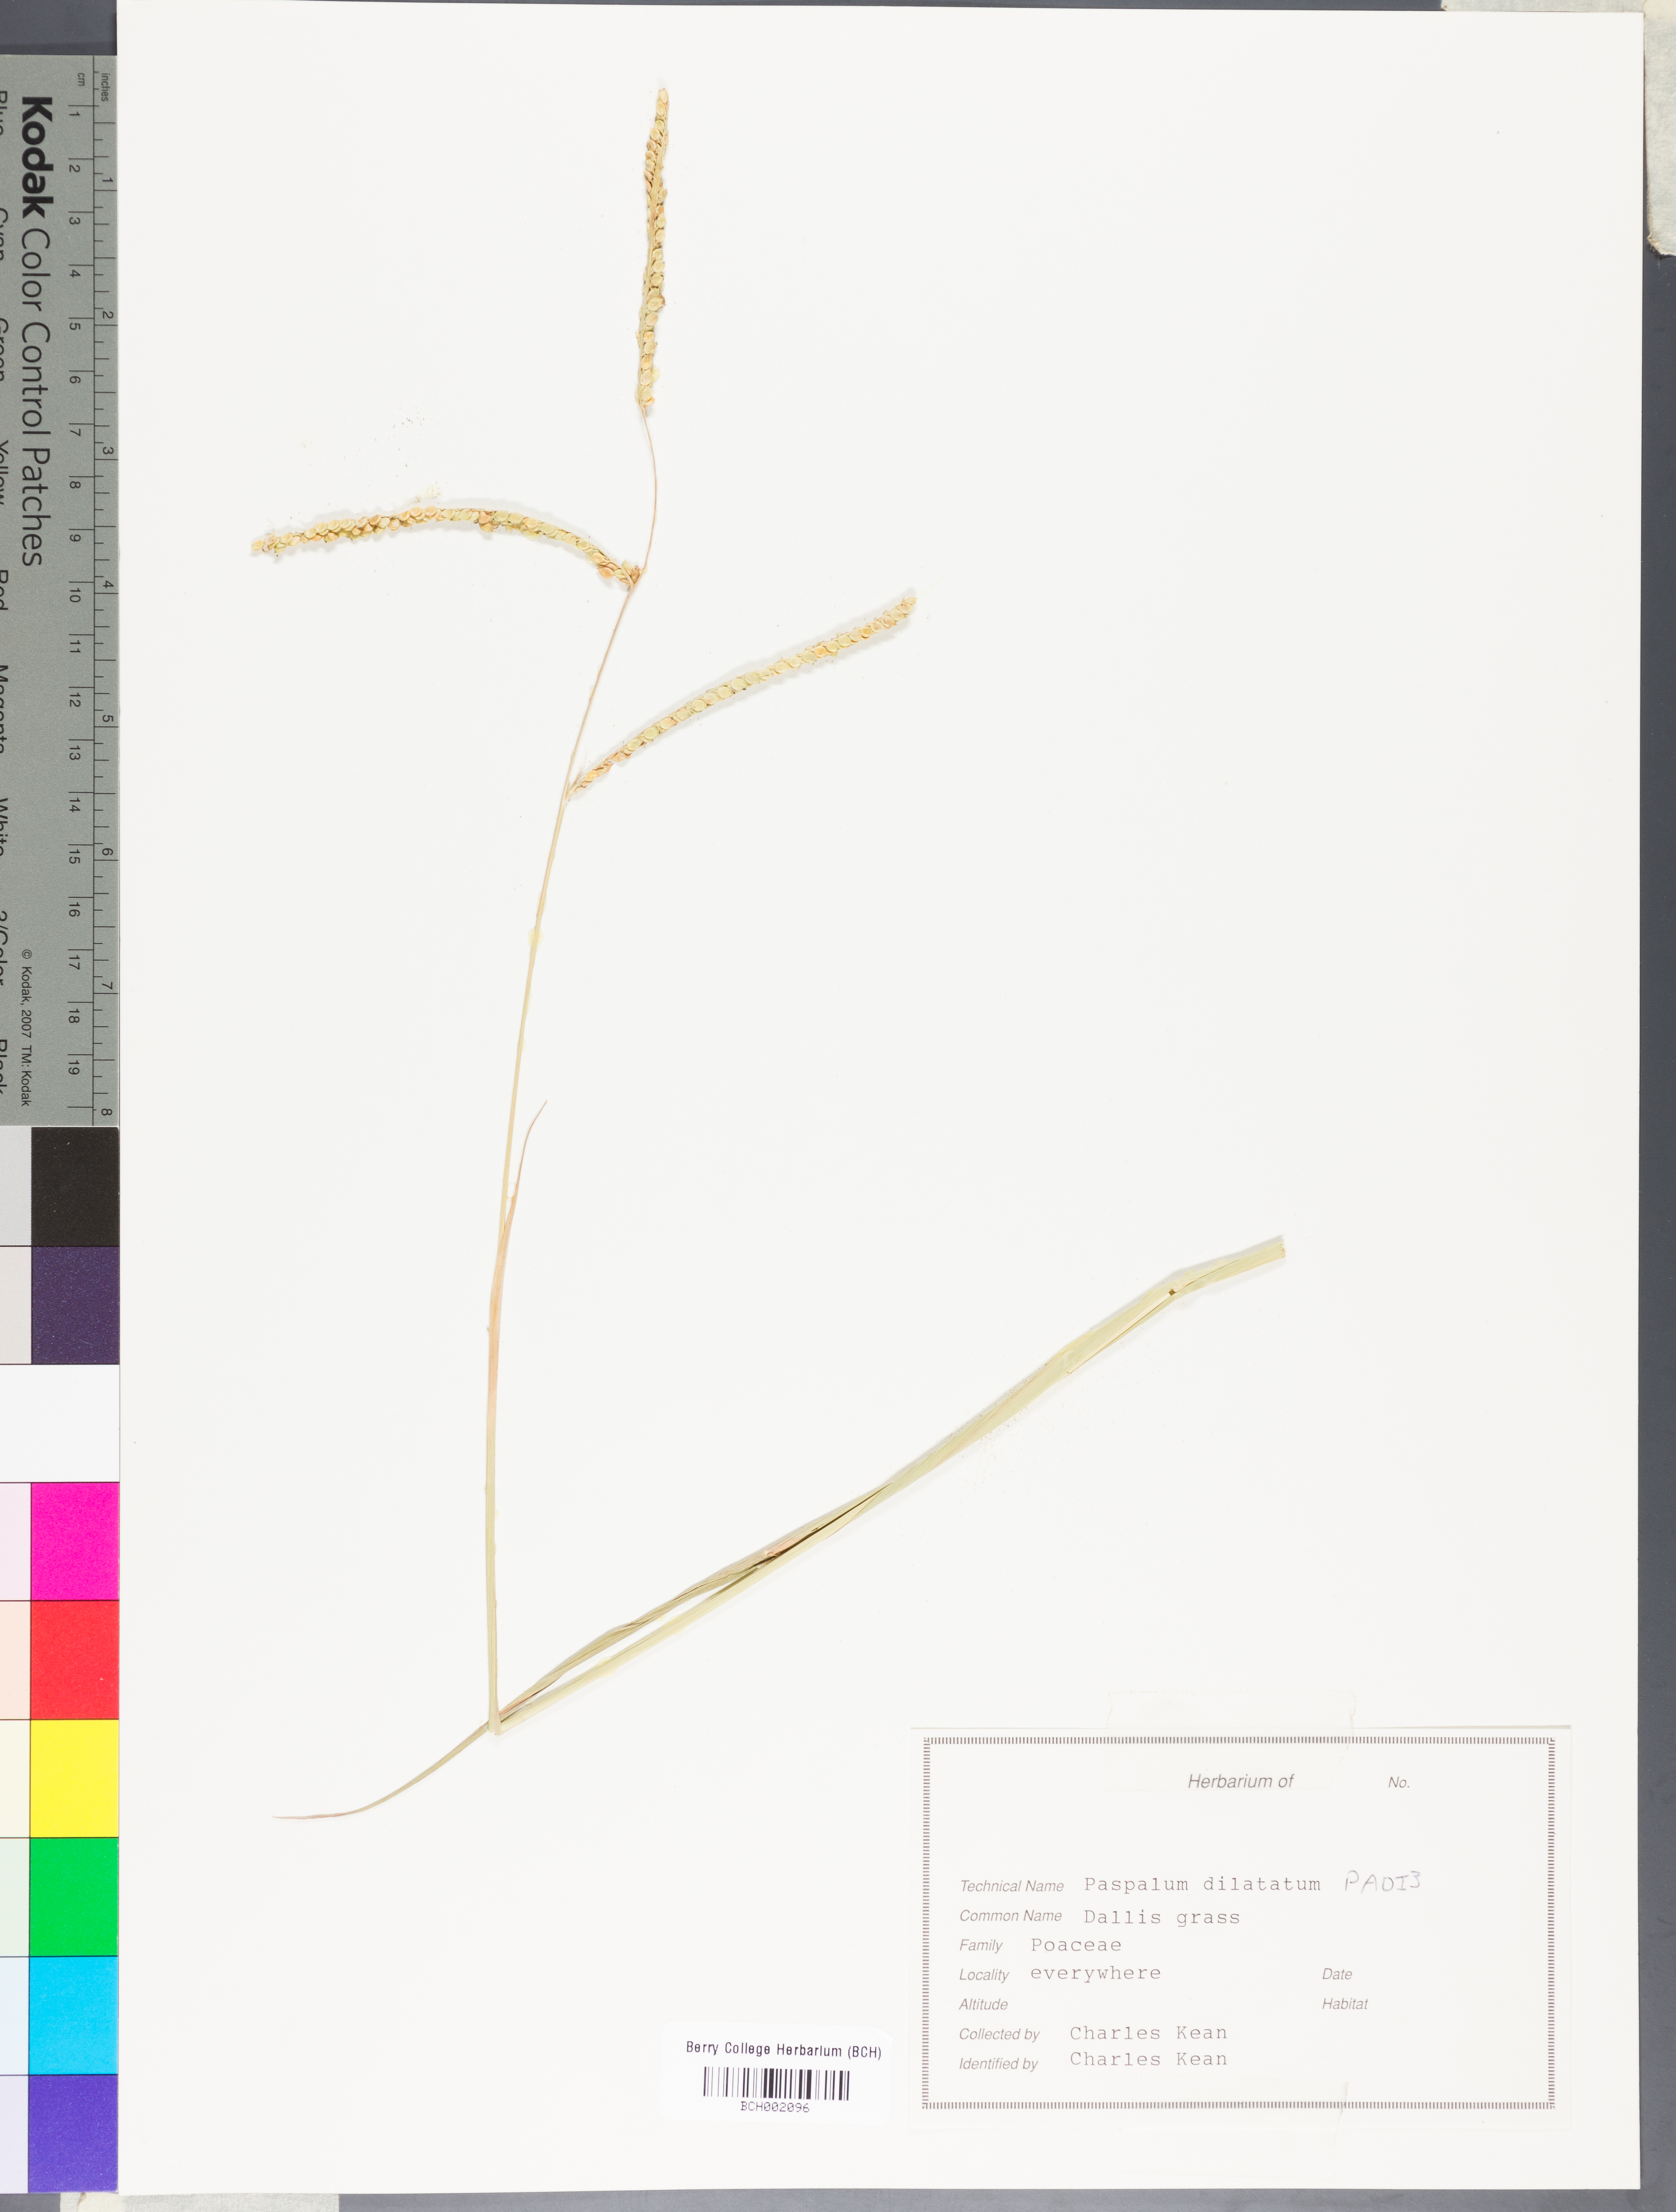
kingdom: Plantae
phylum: Tracheophyta
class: Liliopsida
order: Poales
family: Poaceae
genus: Paspalum
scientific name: Paspalum dilatatum
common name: Dallisgrass
